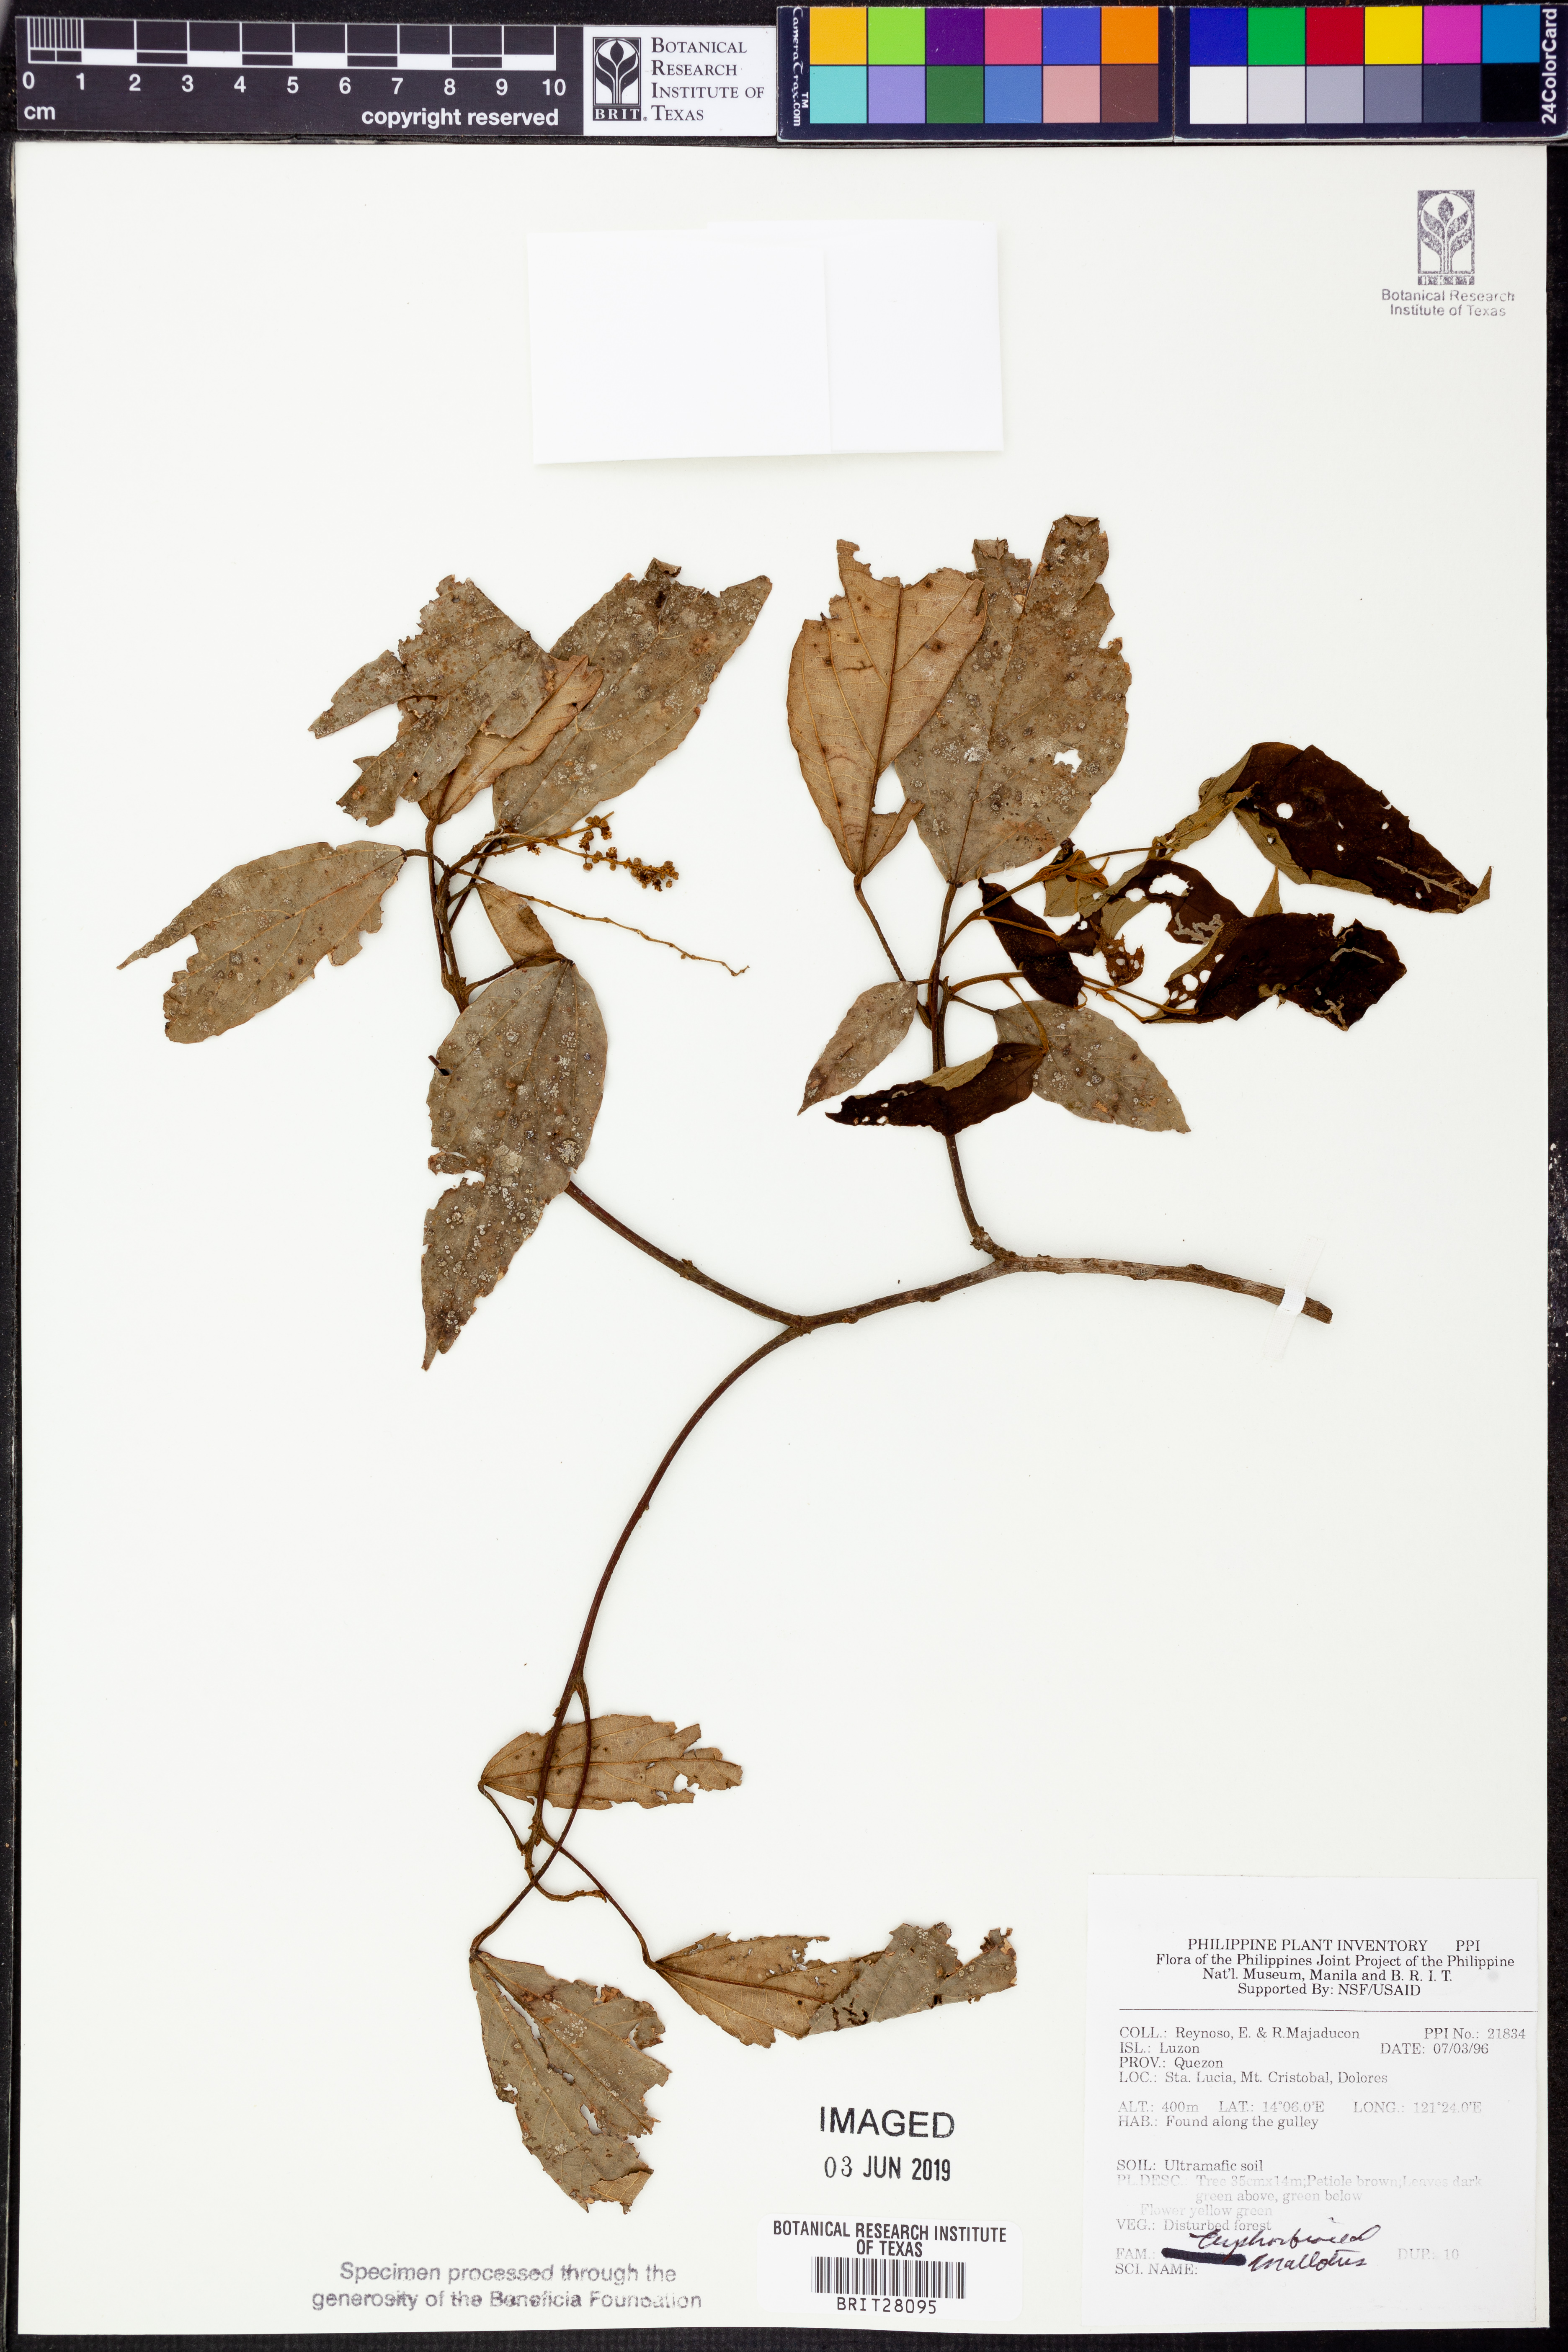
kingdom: Plantae
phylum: Tracheophyta
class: Magnoliopsida
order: Malpighiales
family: Euphorbiaceae
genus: Mallotus
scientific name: Mallotus
